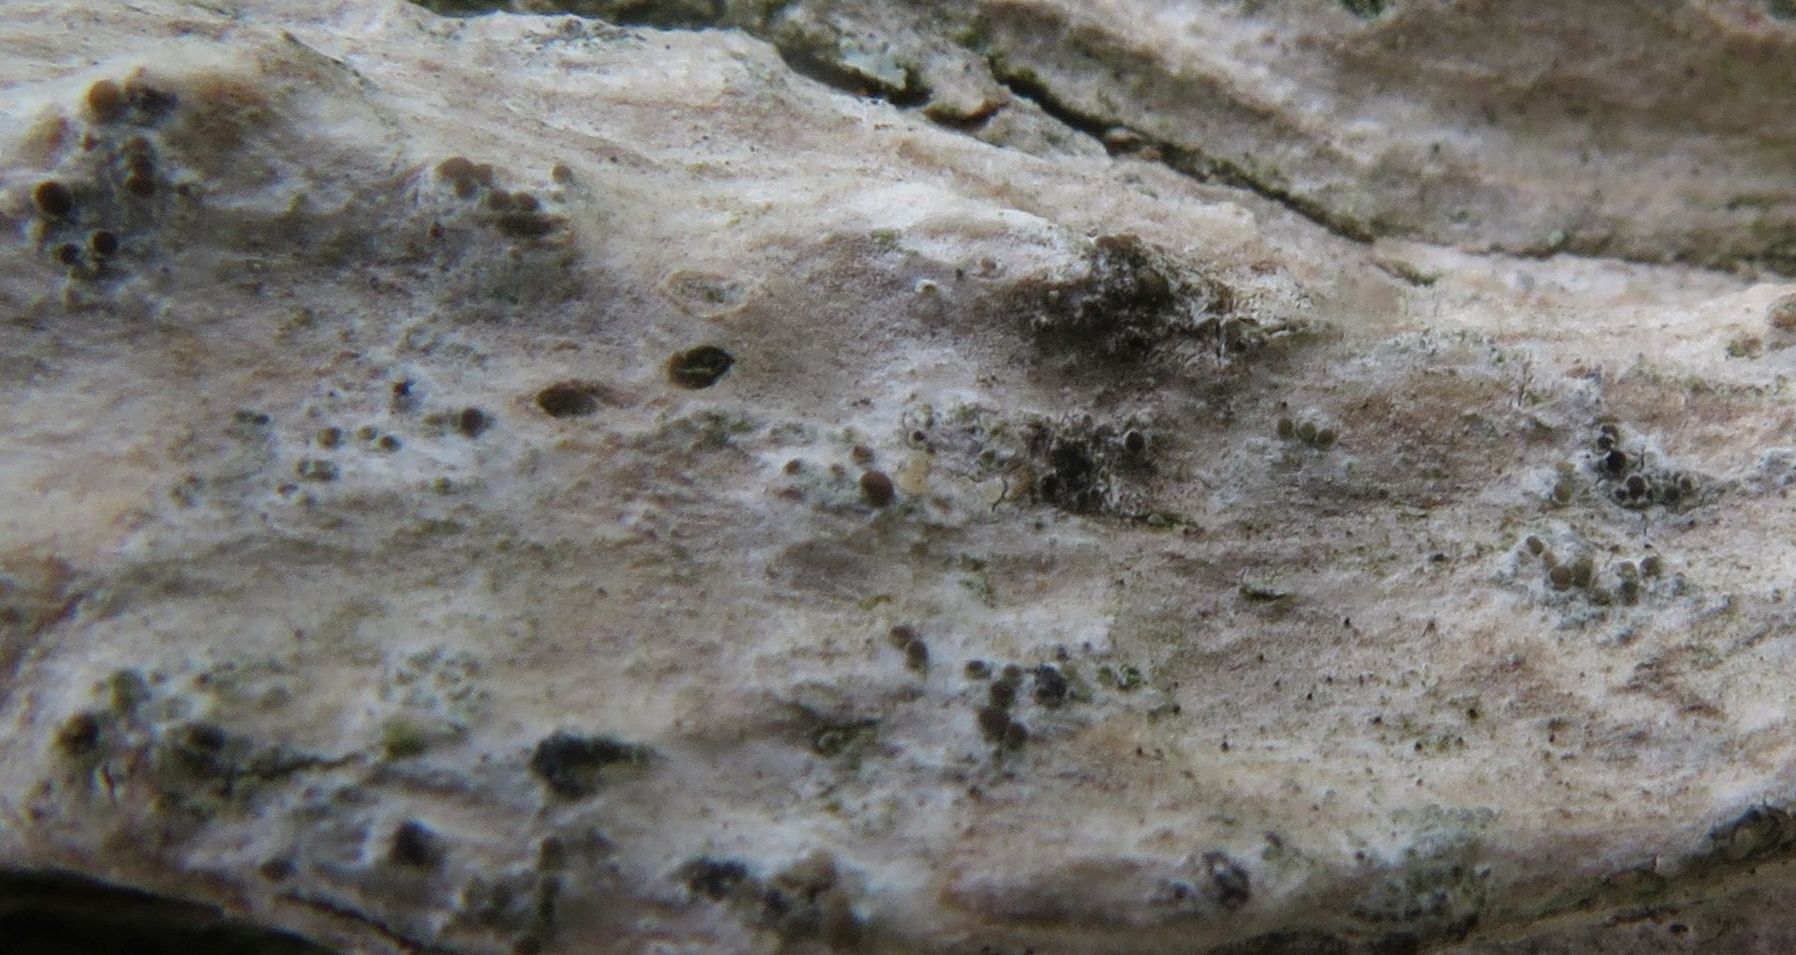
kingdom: Fungi
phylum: Ascomycota
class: Lecanoromycetes
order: Lecanorales
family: Ramalinaceae
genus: Lecania
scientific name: Lecania cyrtella
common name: hylde-lecania
